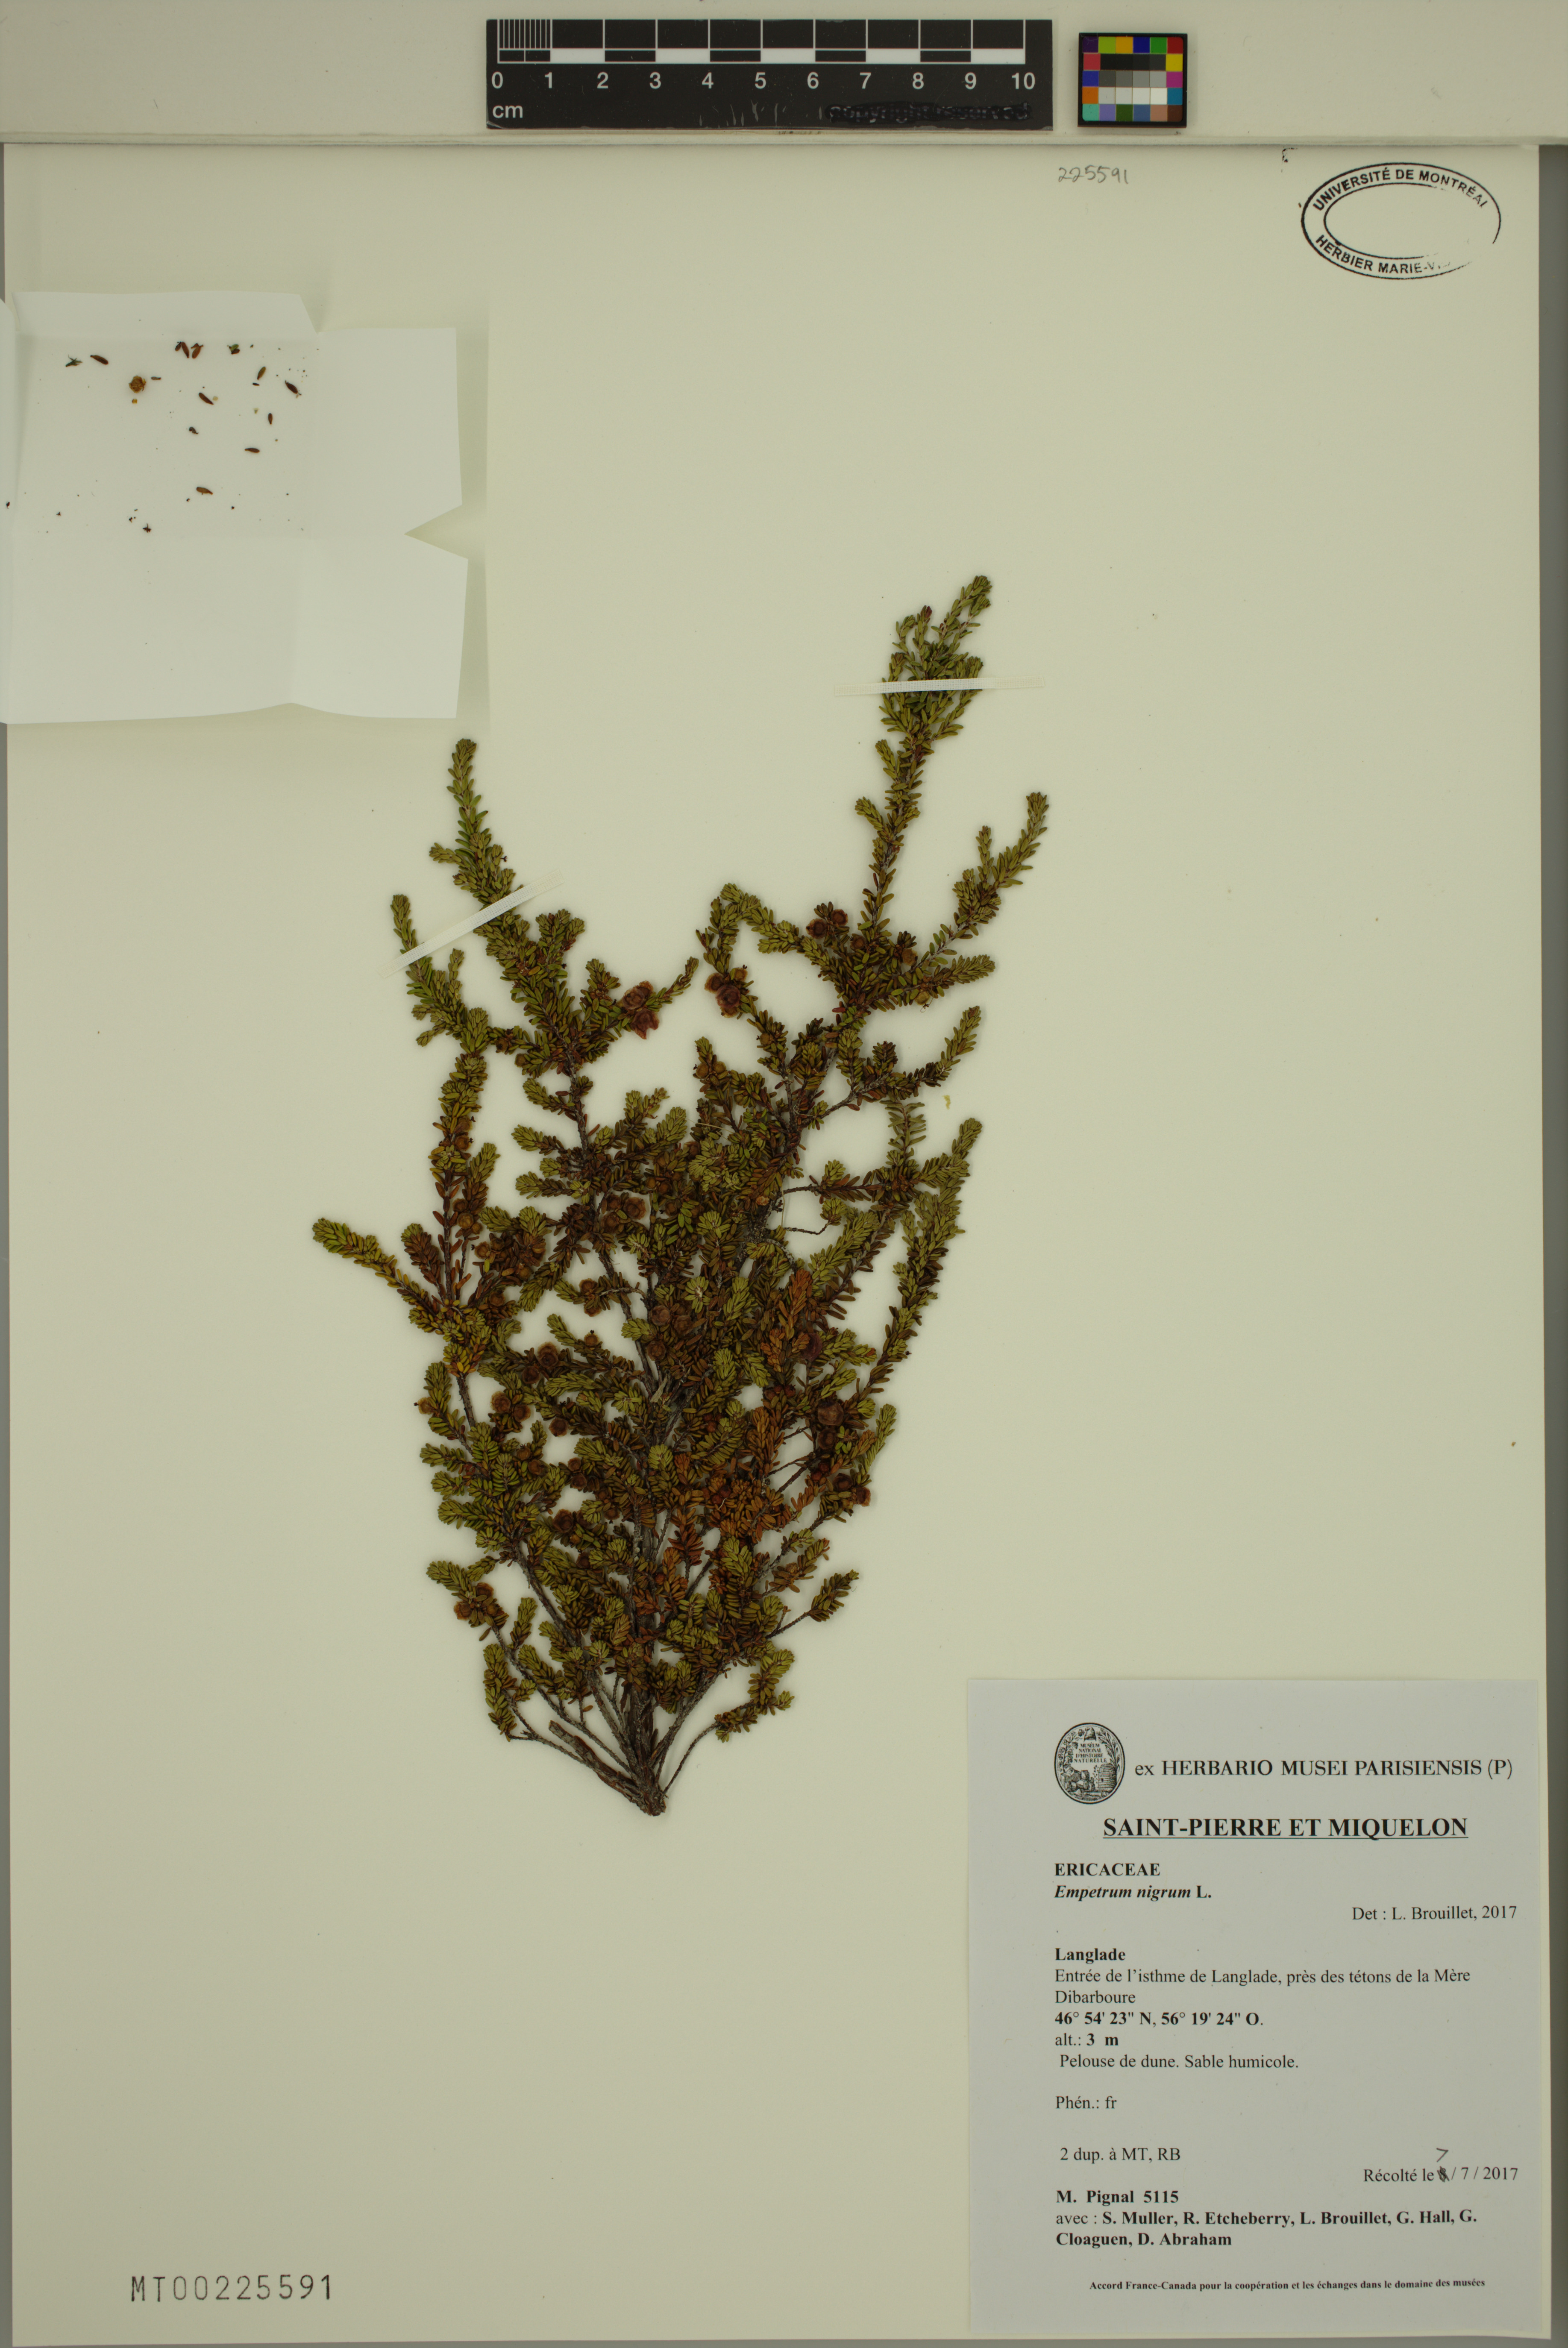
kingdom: Plantae
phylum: Tracheophyta
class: Magnoliopsida
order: Ericales
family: Ericaceae
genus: Empetrum
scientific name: Empetrum nigrum
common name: Black crowberry
